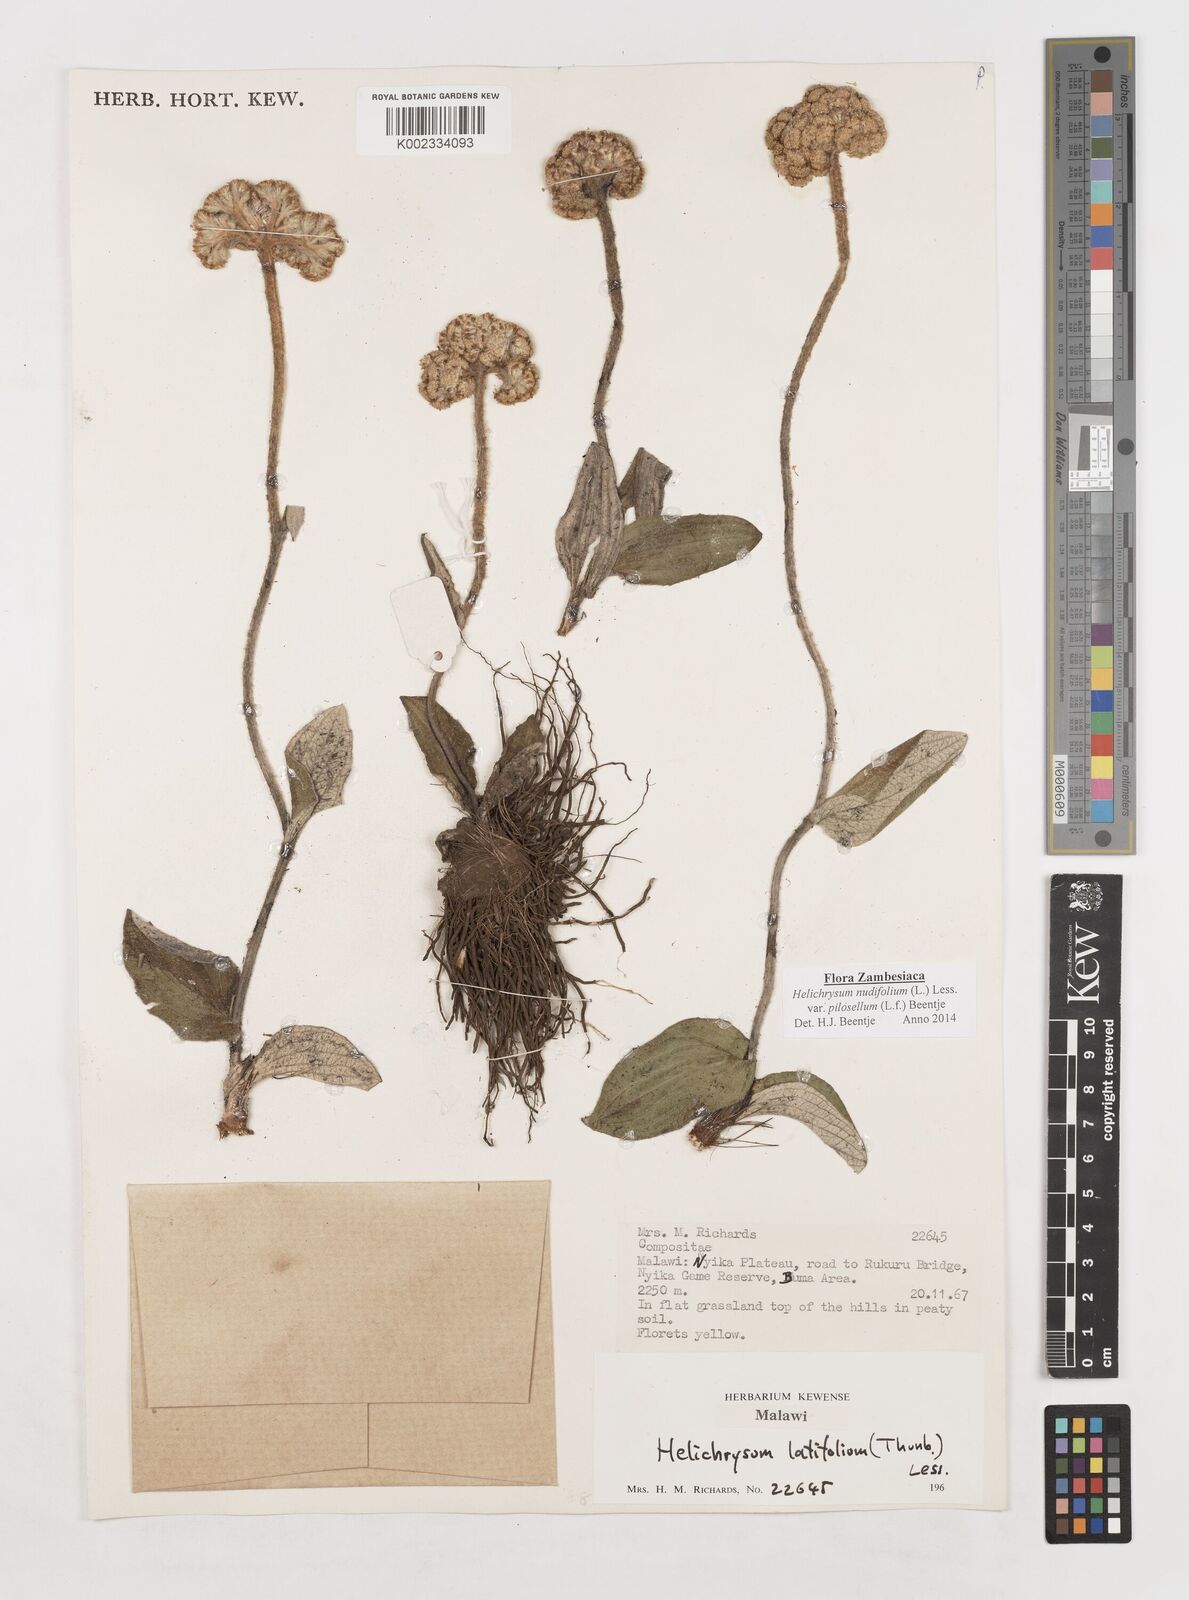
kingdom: Plantae
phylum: Tracheophyta
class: Magnoliopsida
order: Asterales
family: Asteraceae
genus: Helichrysum
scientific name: Helichrysum nudifolium
